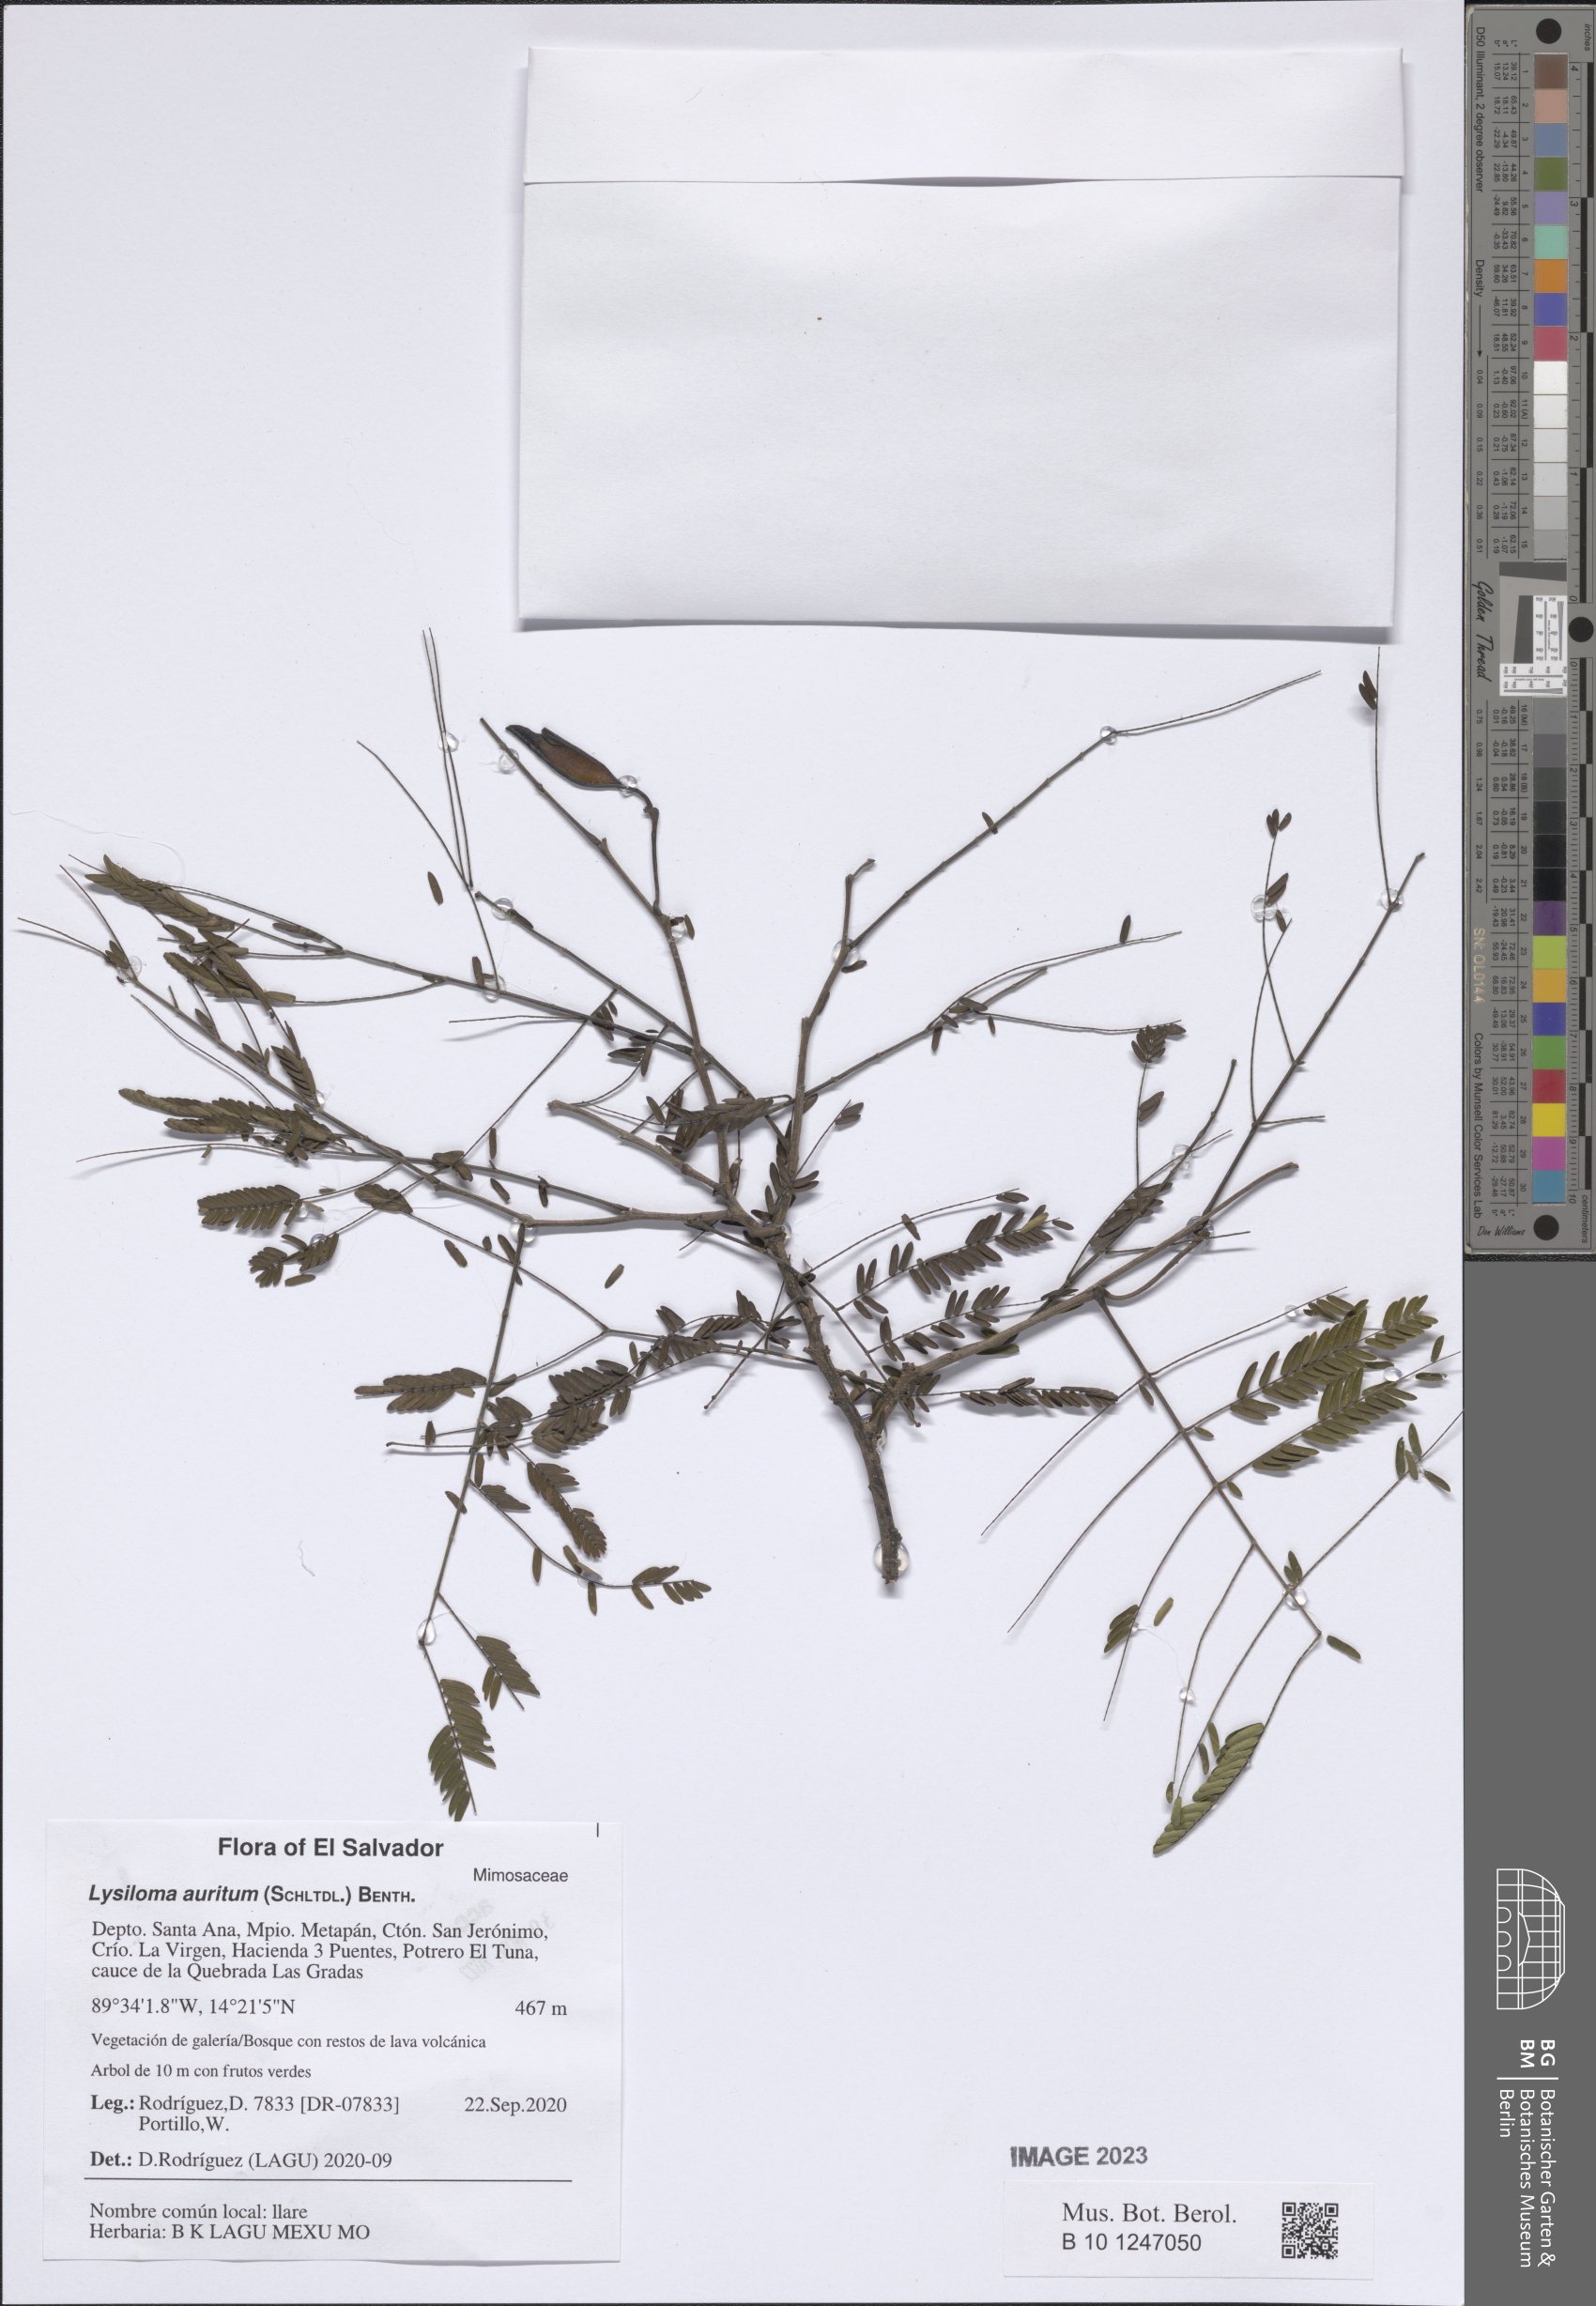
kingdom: Plantae
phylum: Tracheophyta
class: Magnoliopsida
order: Fabales
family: Fabaceae
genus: Lysiloma
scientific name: Lysiloma auritum
